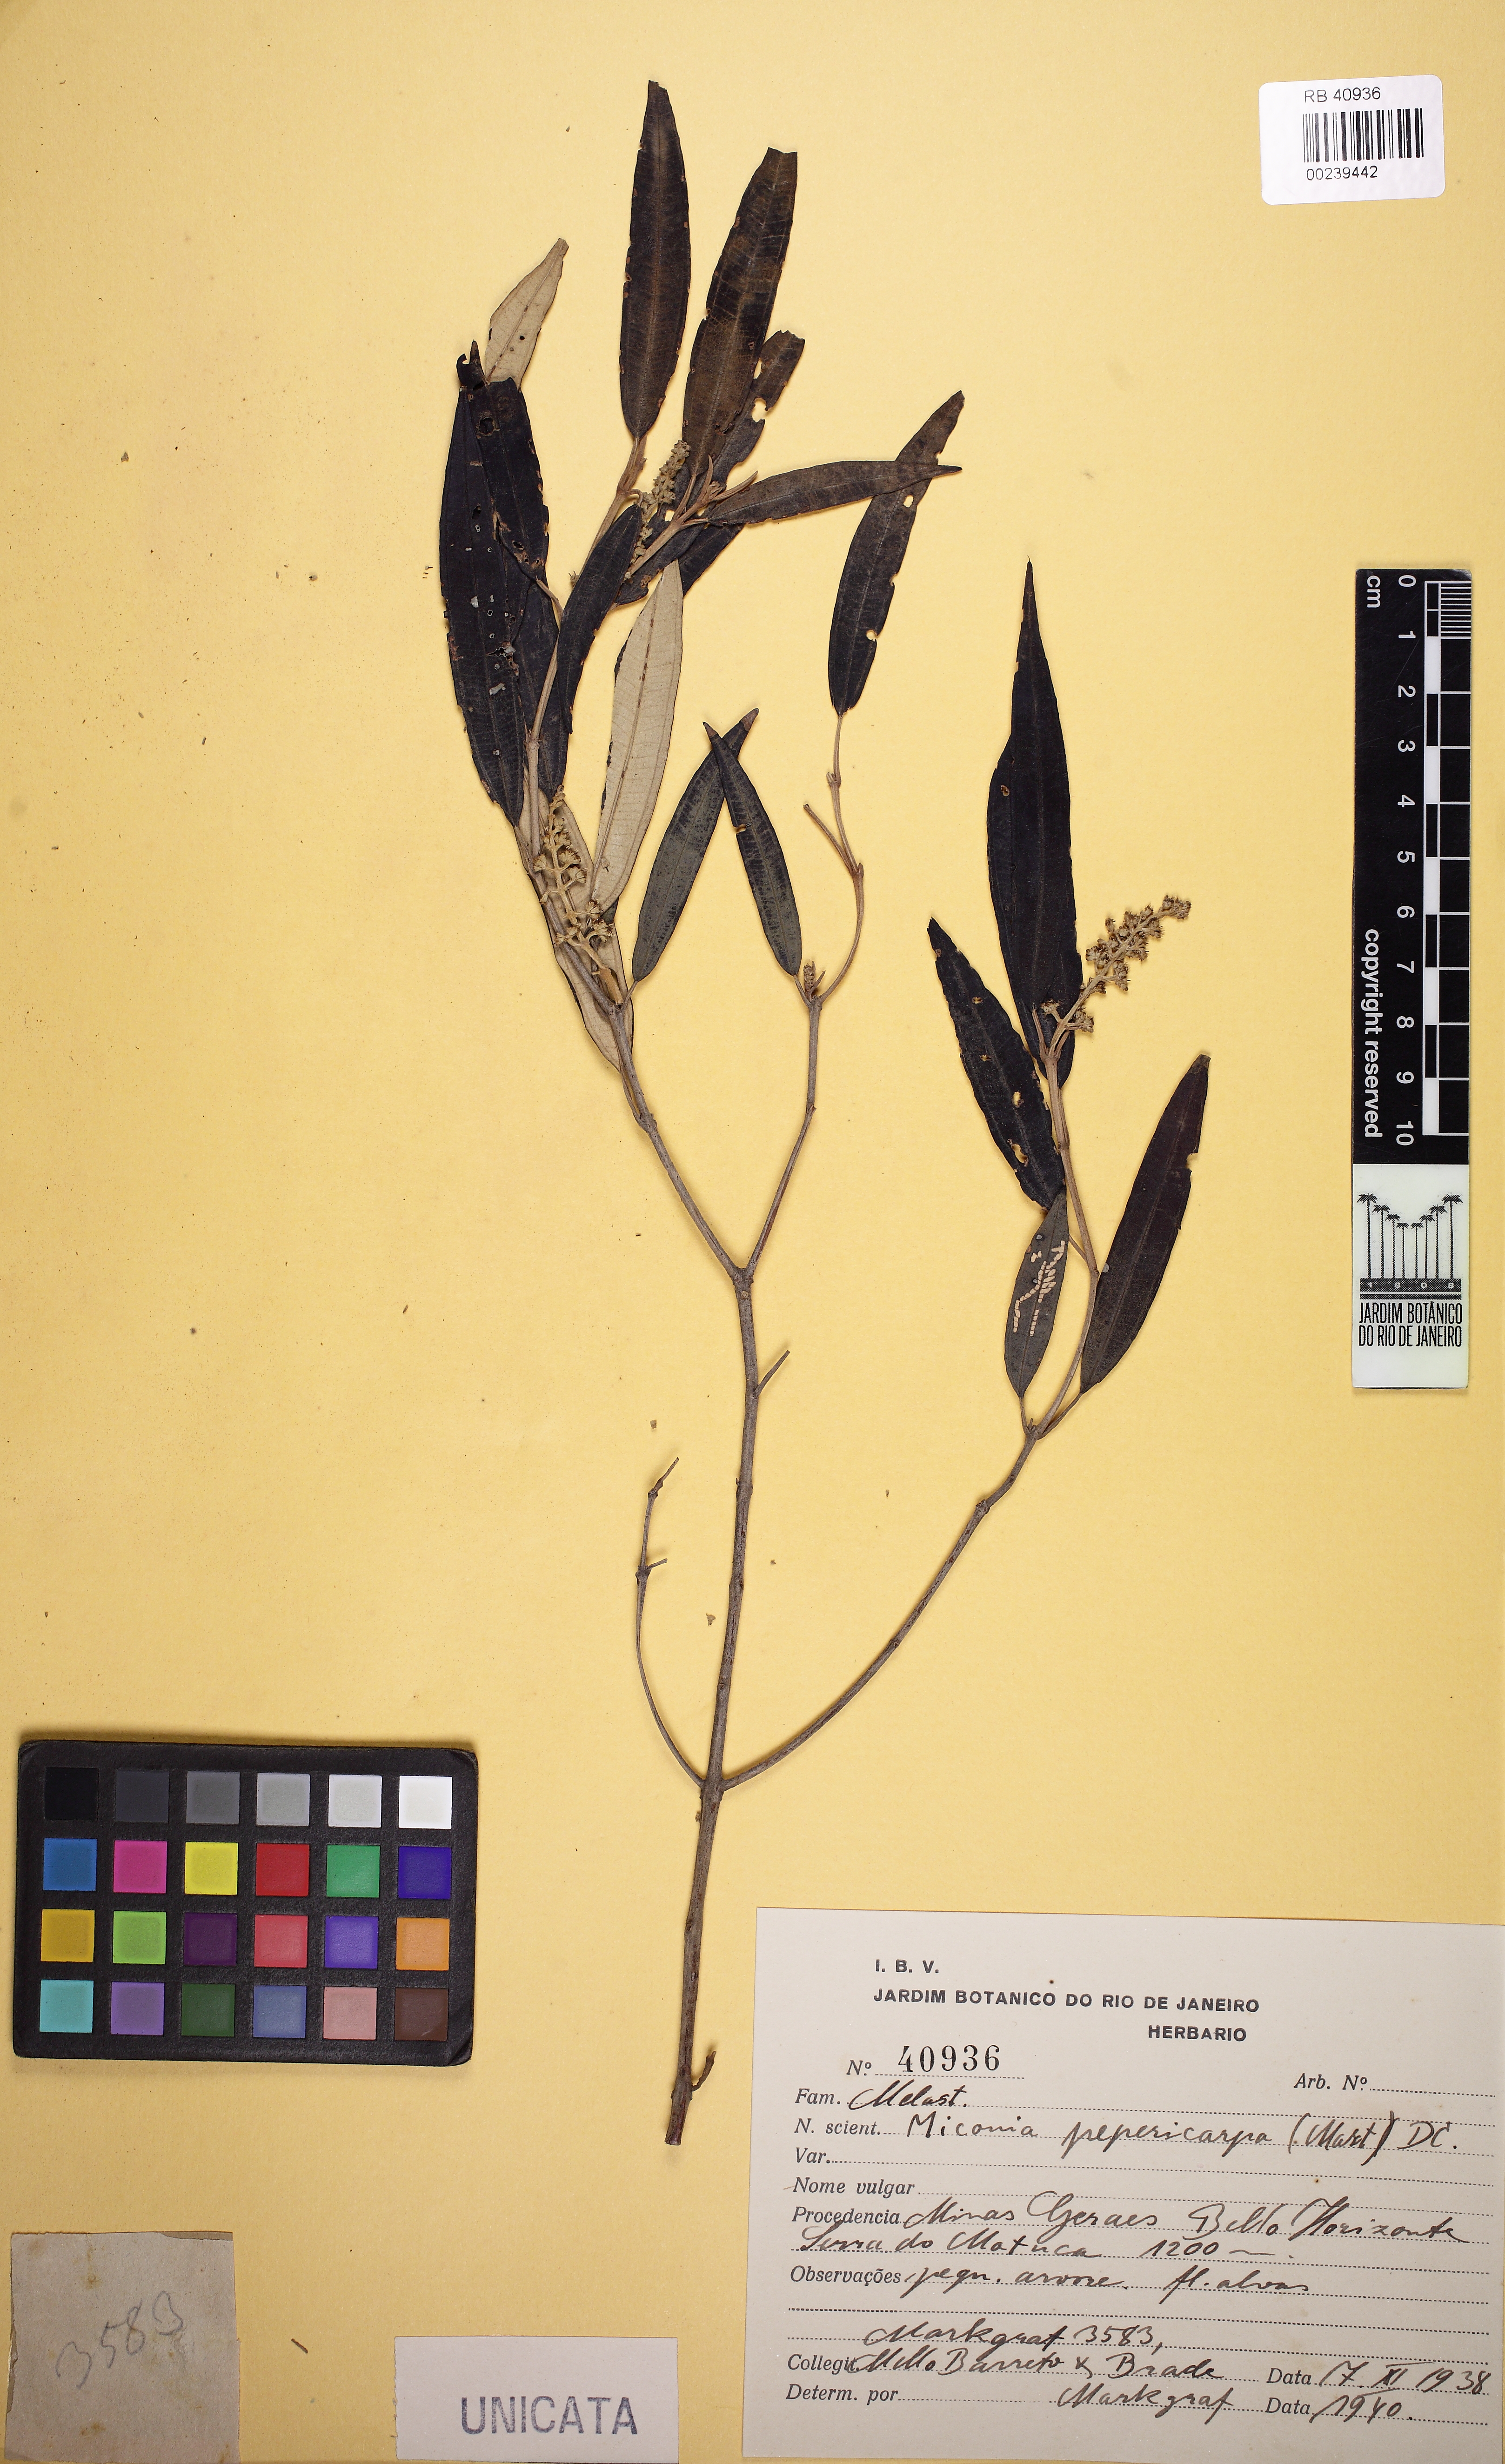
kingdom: Plantae
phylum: Tracheophyta
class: Magnoliopsida
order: Myrtales
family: Melastomataceae
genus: Miconia
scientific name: Miconia pepericarpa
